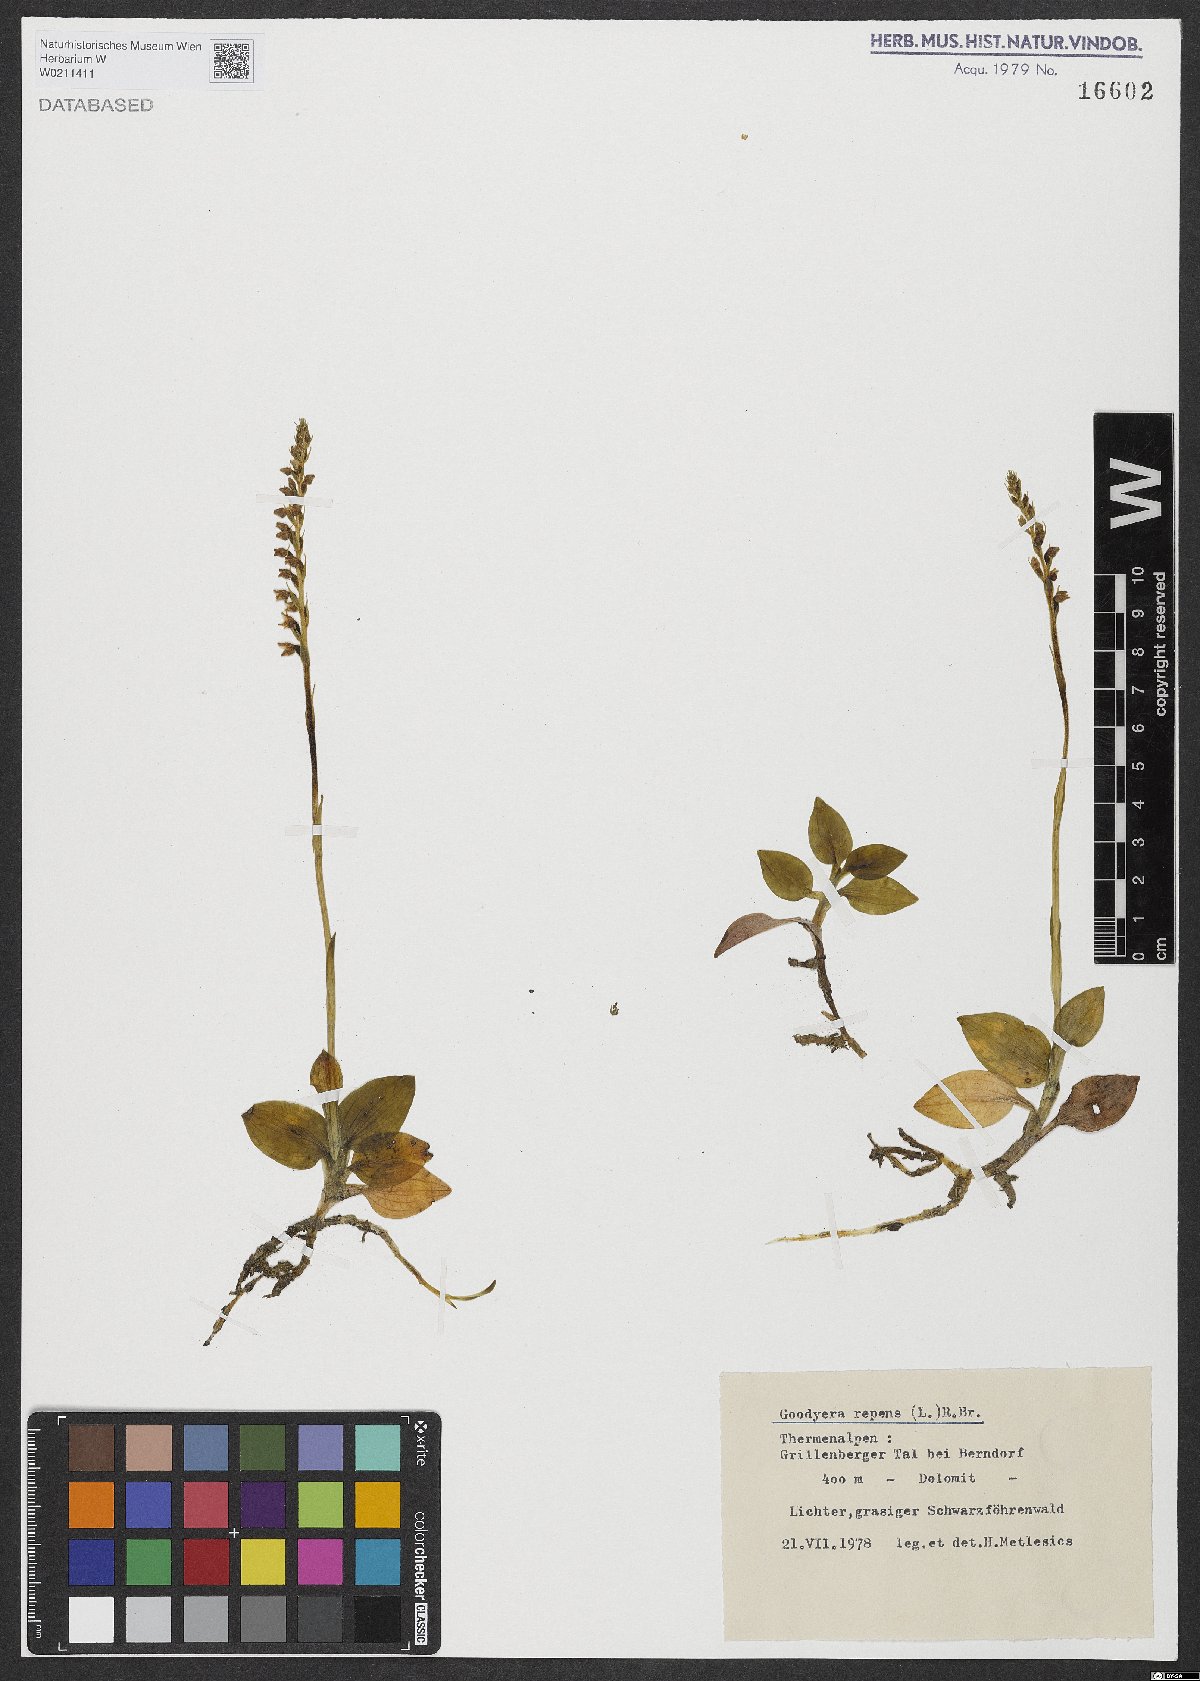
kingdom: Plantae
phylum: Tracheophyta
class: Liliopsida
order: Asparagales
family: Orchidaceae
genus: Goodyera
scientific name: Goodyera repens
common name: Creeping lady's-tresses
